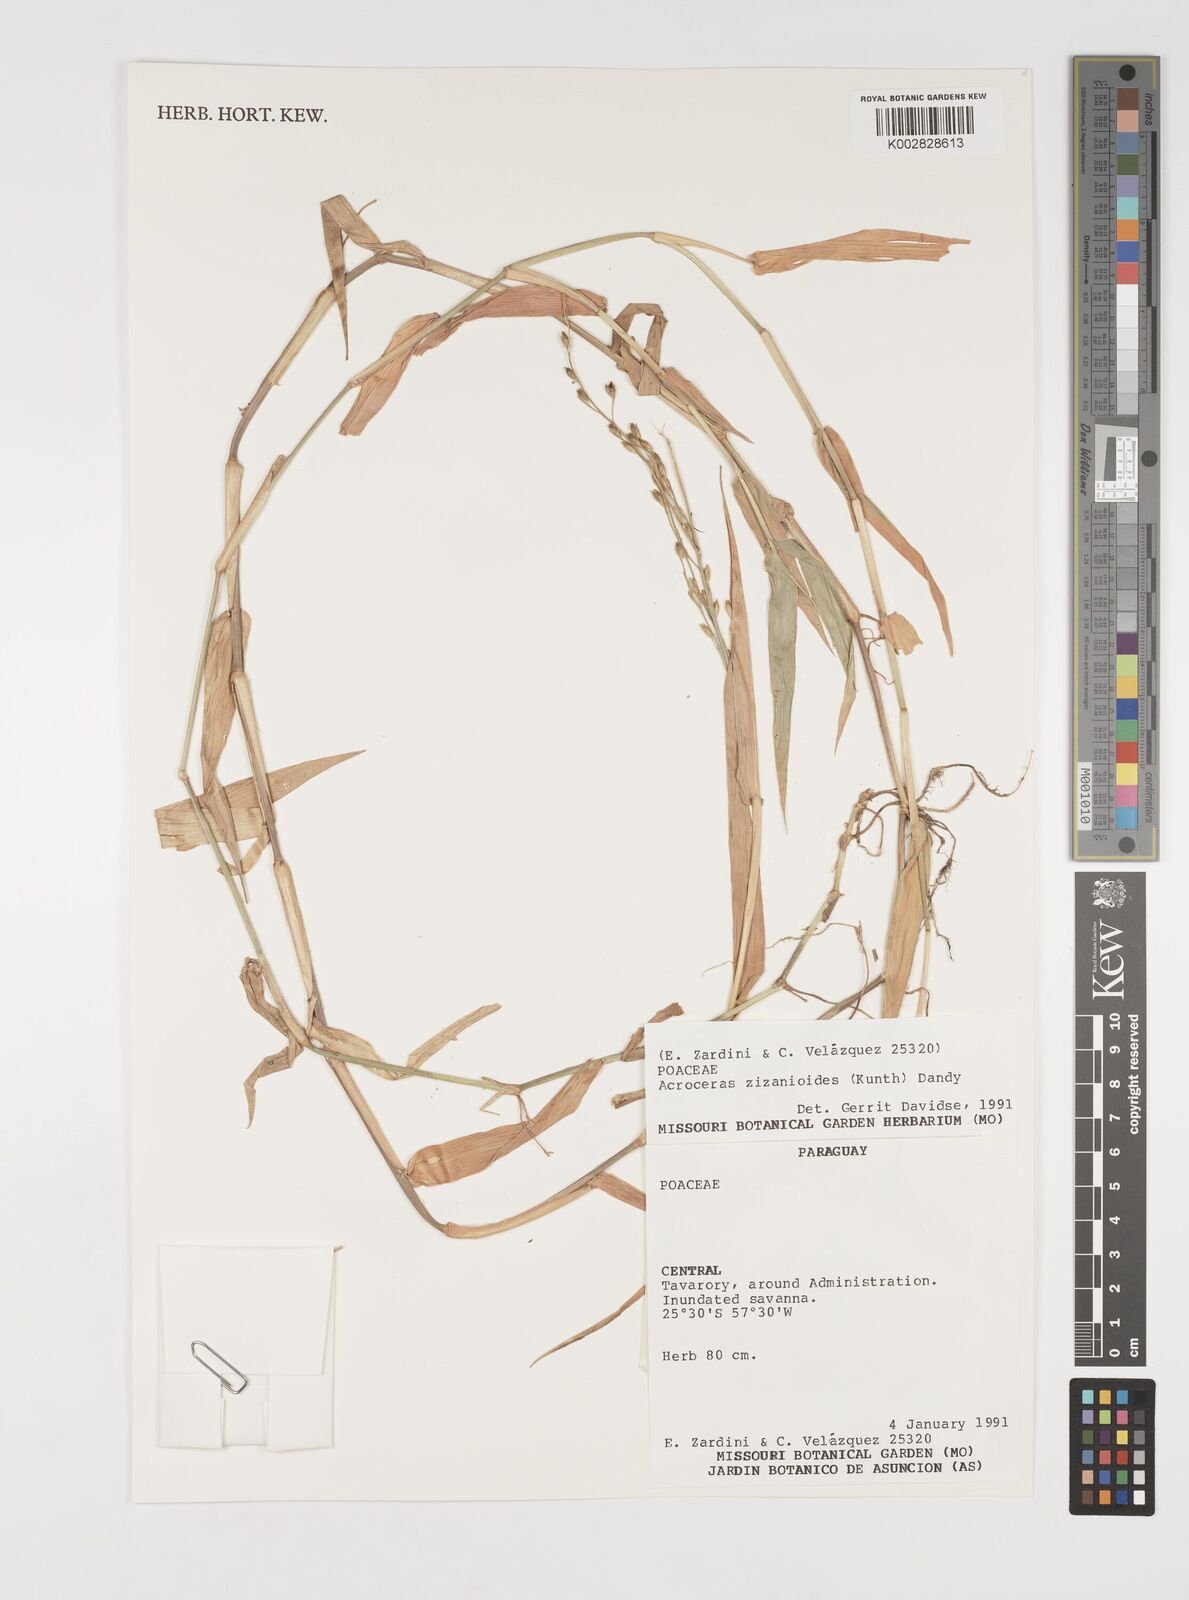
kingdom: Plantae
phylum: Tracheophyta
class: Liliopsida
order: Poales
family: Poaceae
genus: Acroceras
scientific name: Acroceras zizanioides
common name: Oat grass
